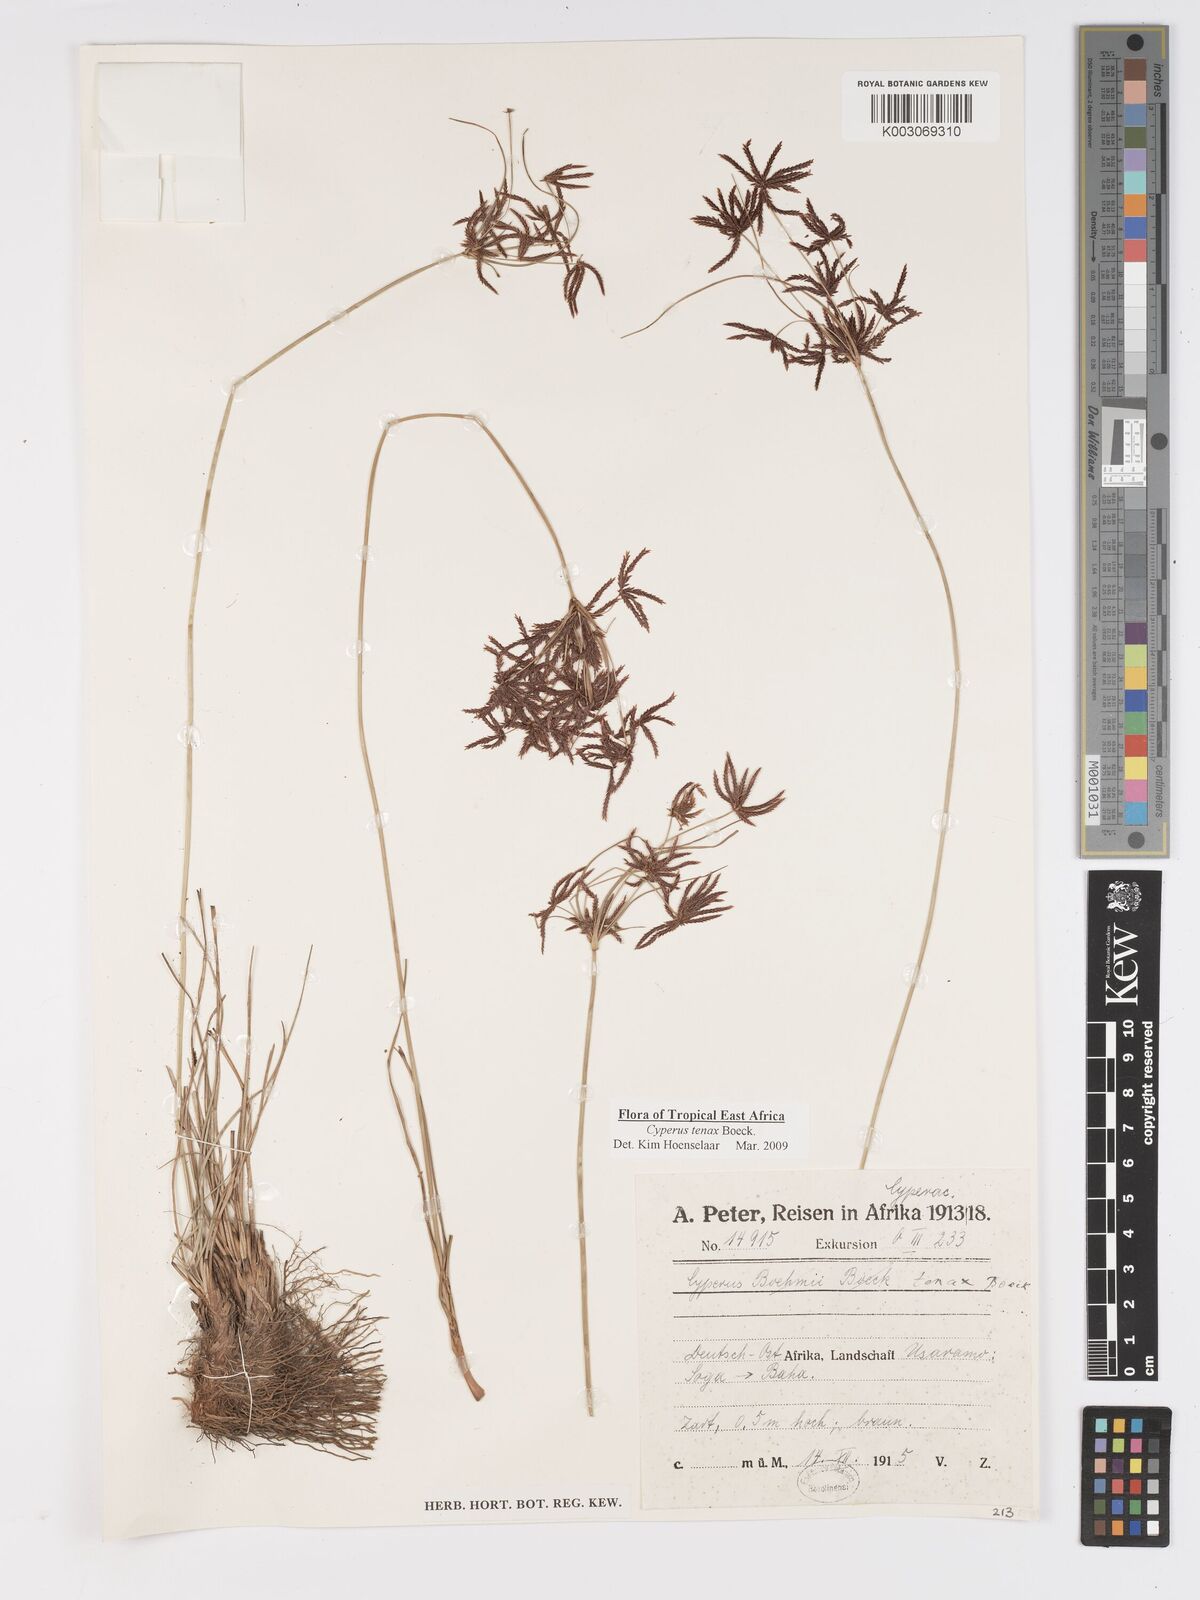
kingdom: Plantae
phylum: Tracheophyta
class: Liliopsida
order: Poales
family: Cyperaceae
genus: Cyperus
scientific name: Cyperus tenax
